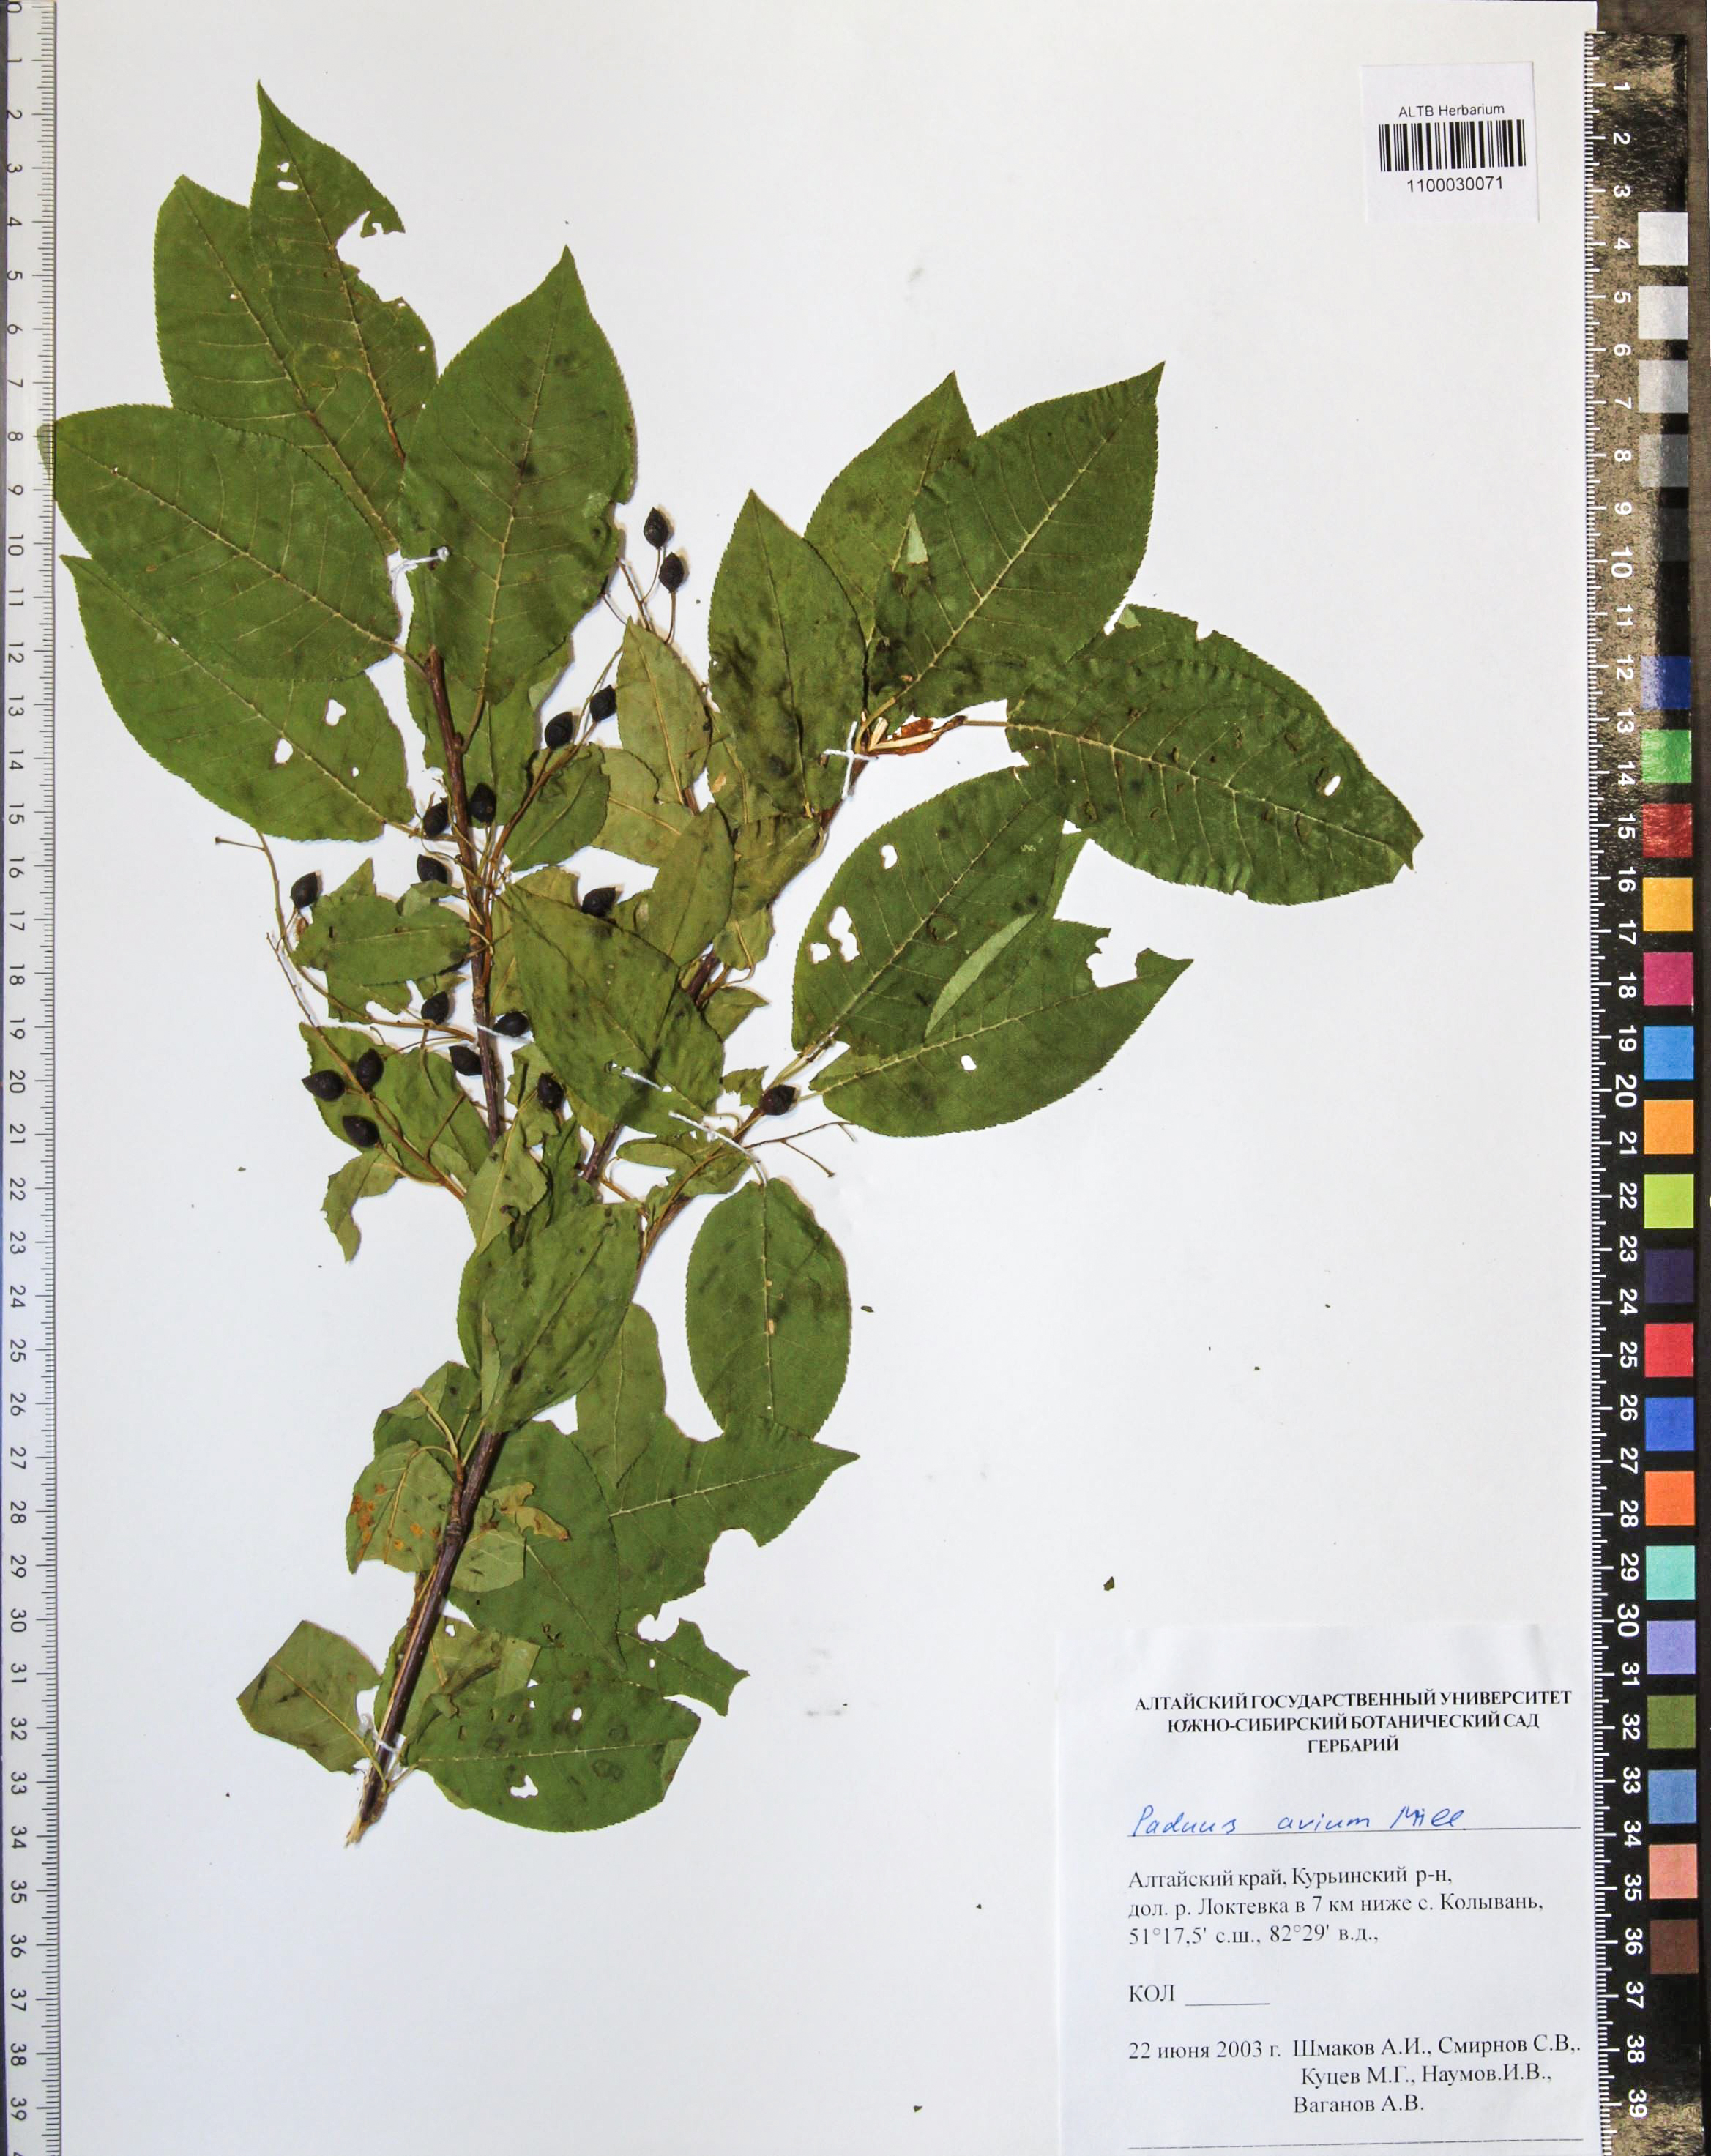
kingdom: Plantae
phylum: Tracheophyta
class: Magnoliopsida
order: Rosales
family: Rosaceae
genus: Prunus
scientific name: Prunus padus
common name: Bird cherry
